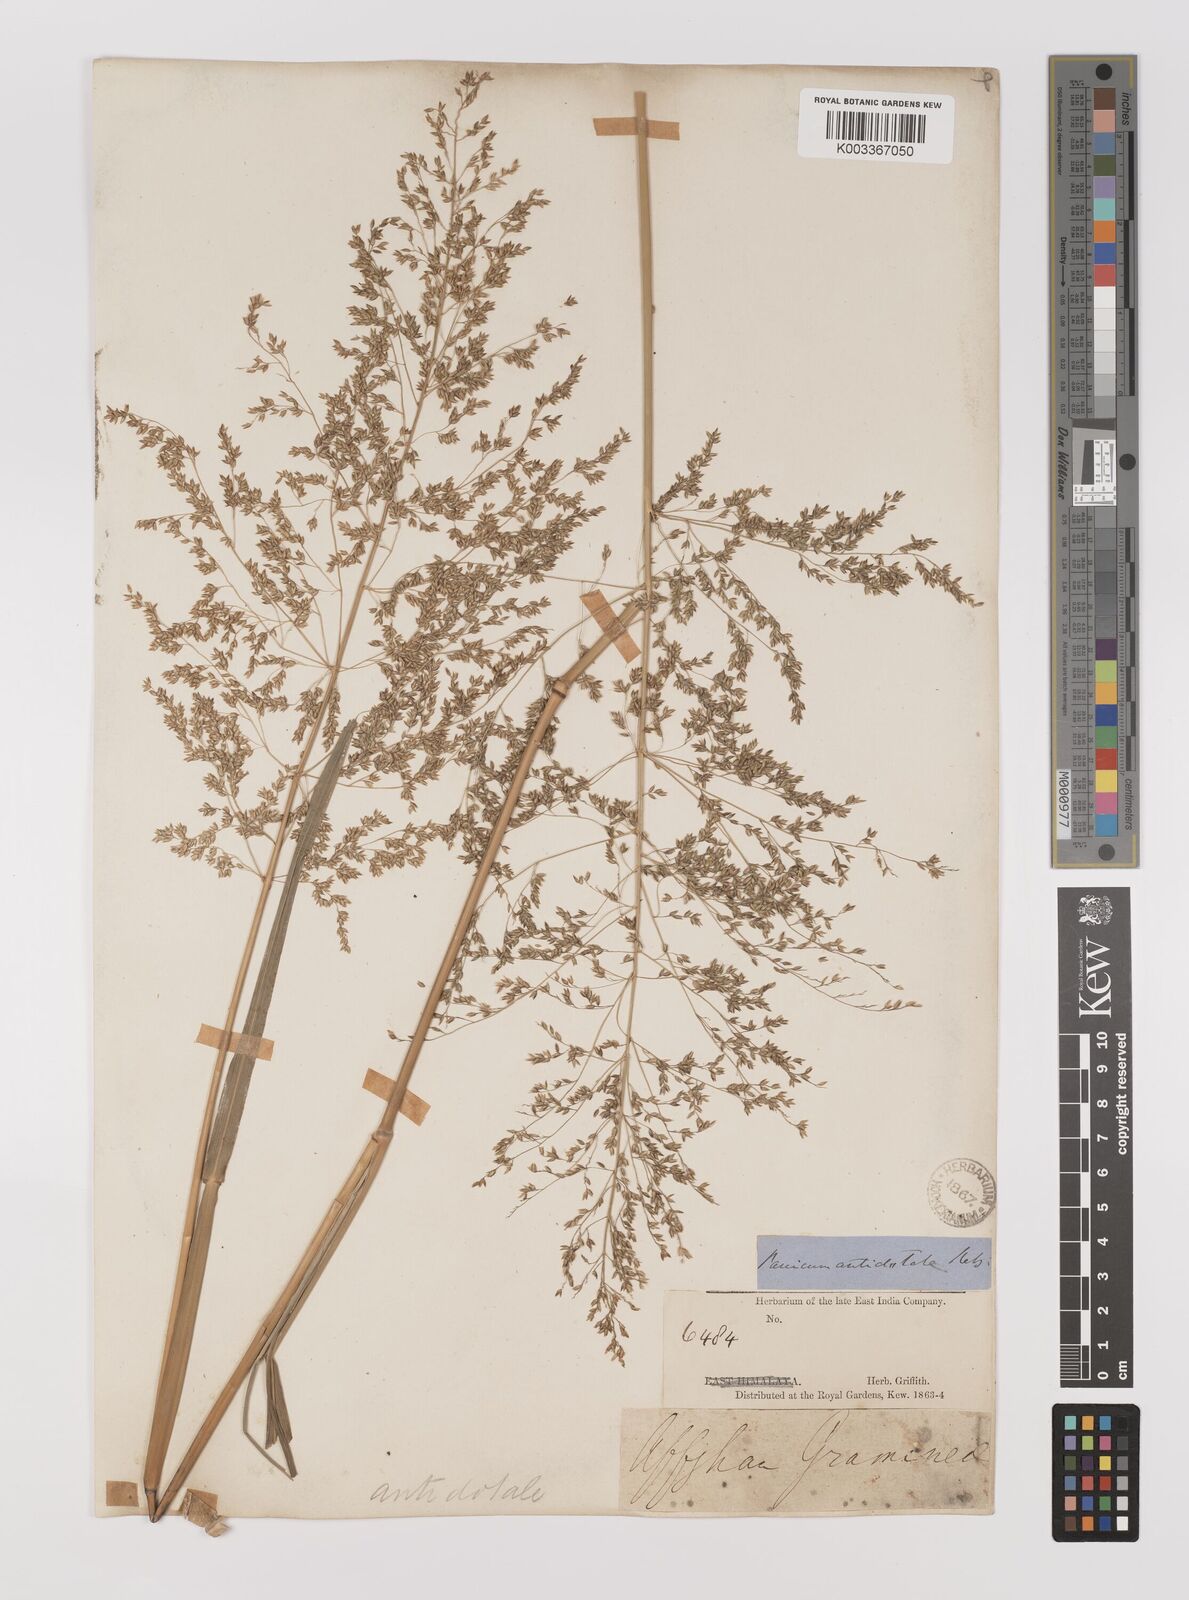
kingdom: Plantae
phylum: Tracheophyta
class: Liliopsida
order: Poales
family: Poaceae
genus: Panicum
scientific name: Panicum antidotale
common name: Blue panicum
